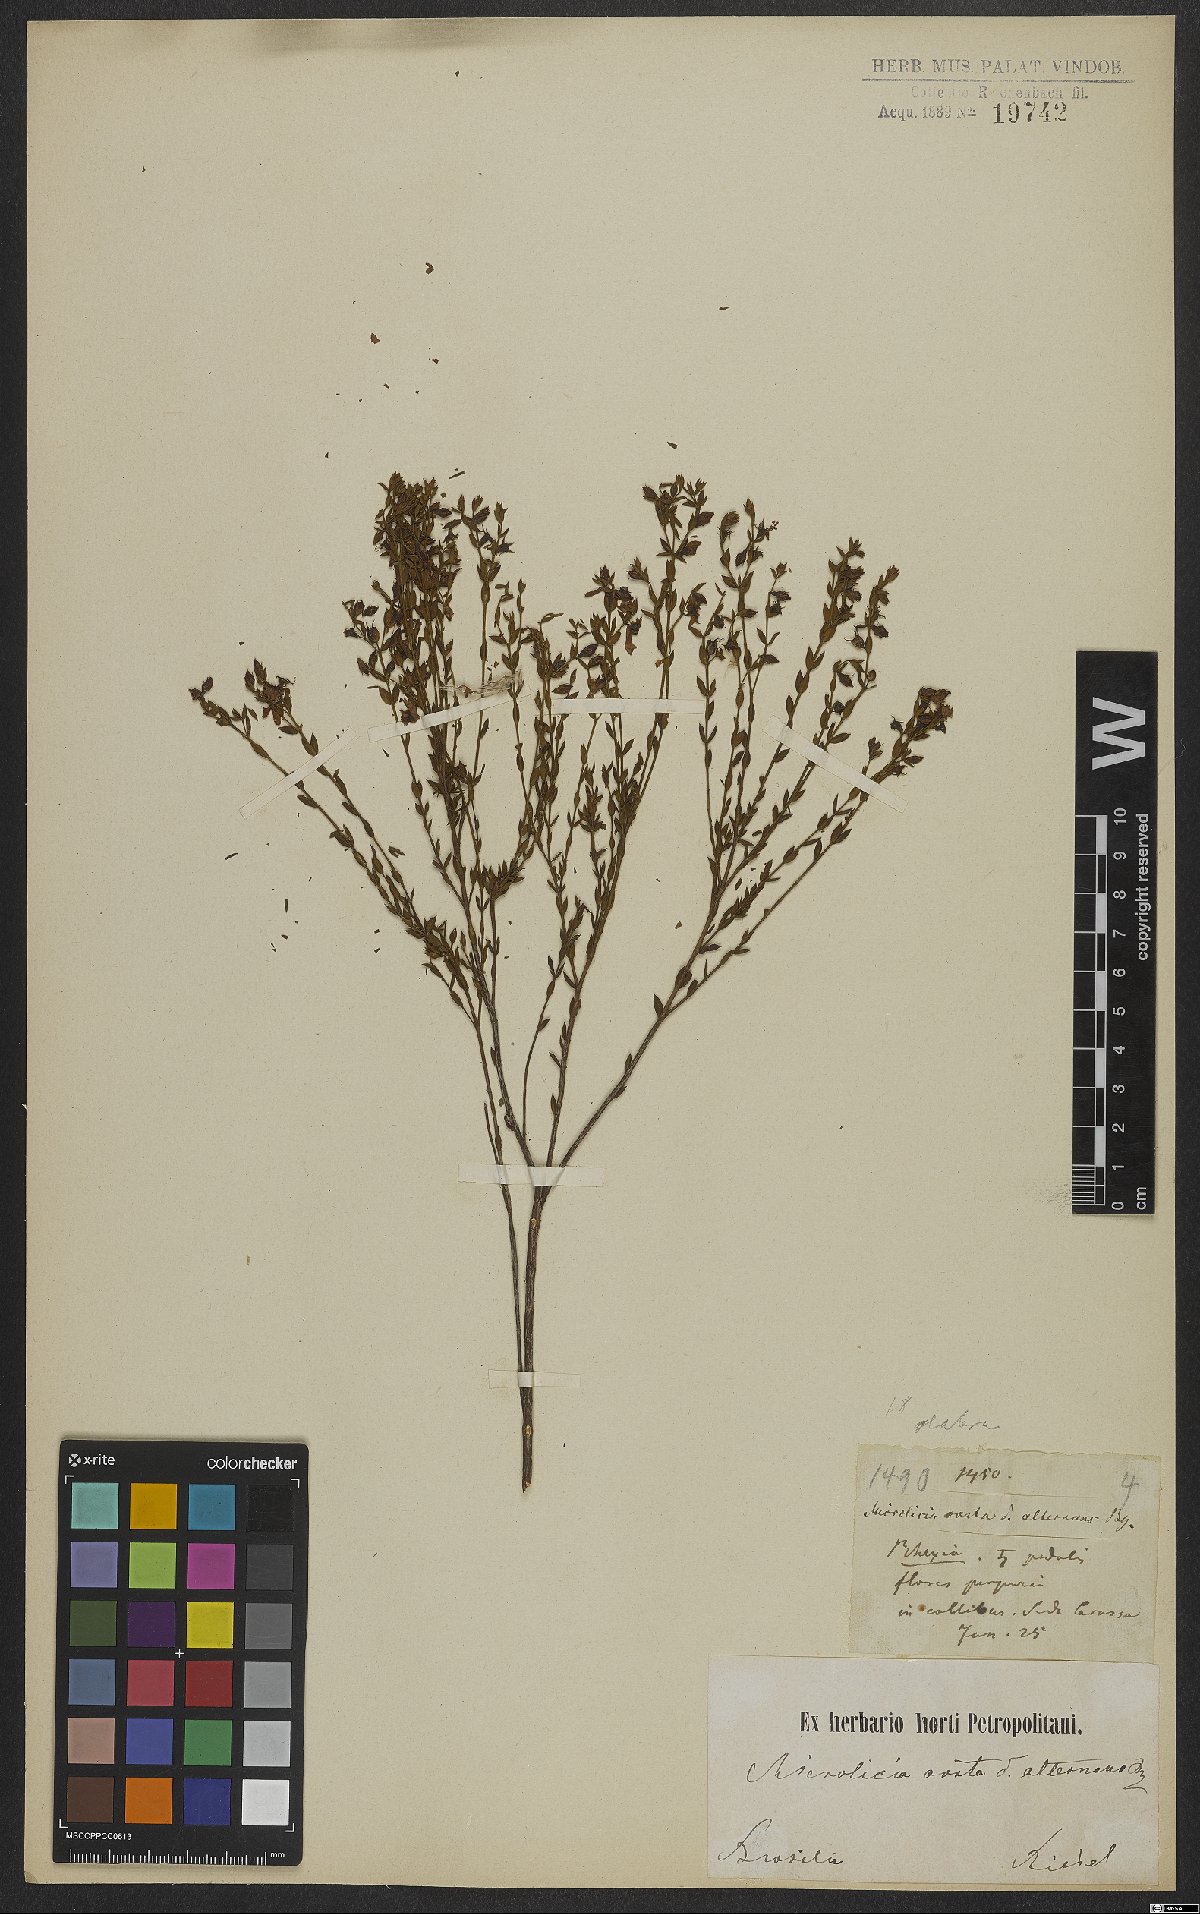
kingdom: Plantae
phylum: Tracheophyta
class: Magnoliopsida
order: Myrtales
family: Melastomataceae
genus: Microlicia
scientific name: Microlicia doryphylla
